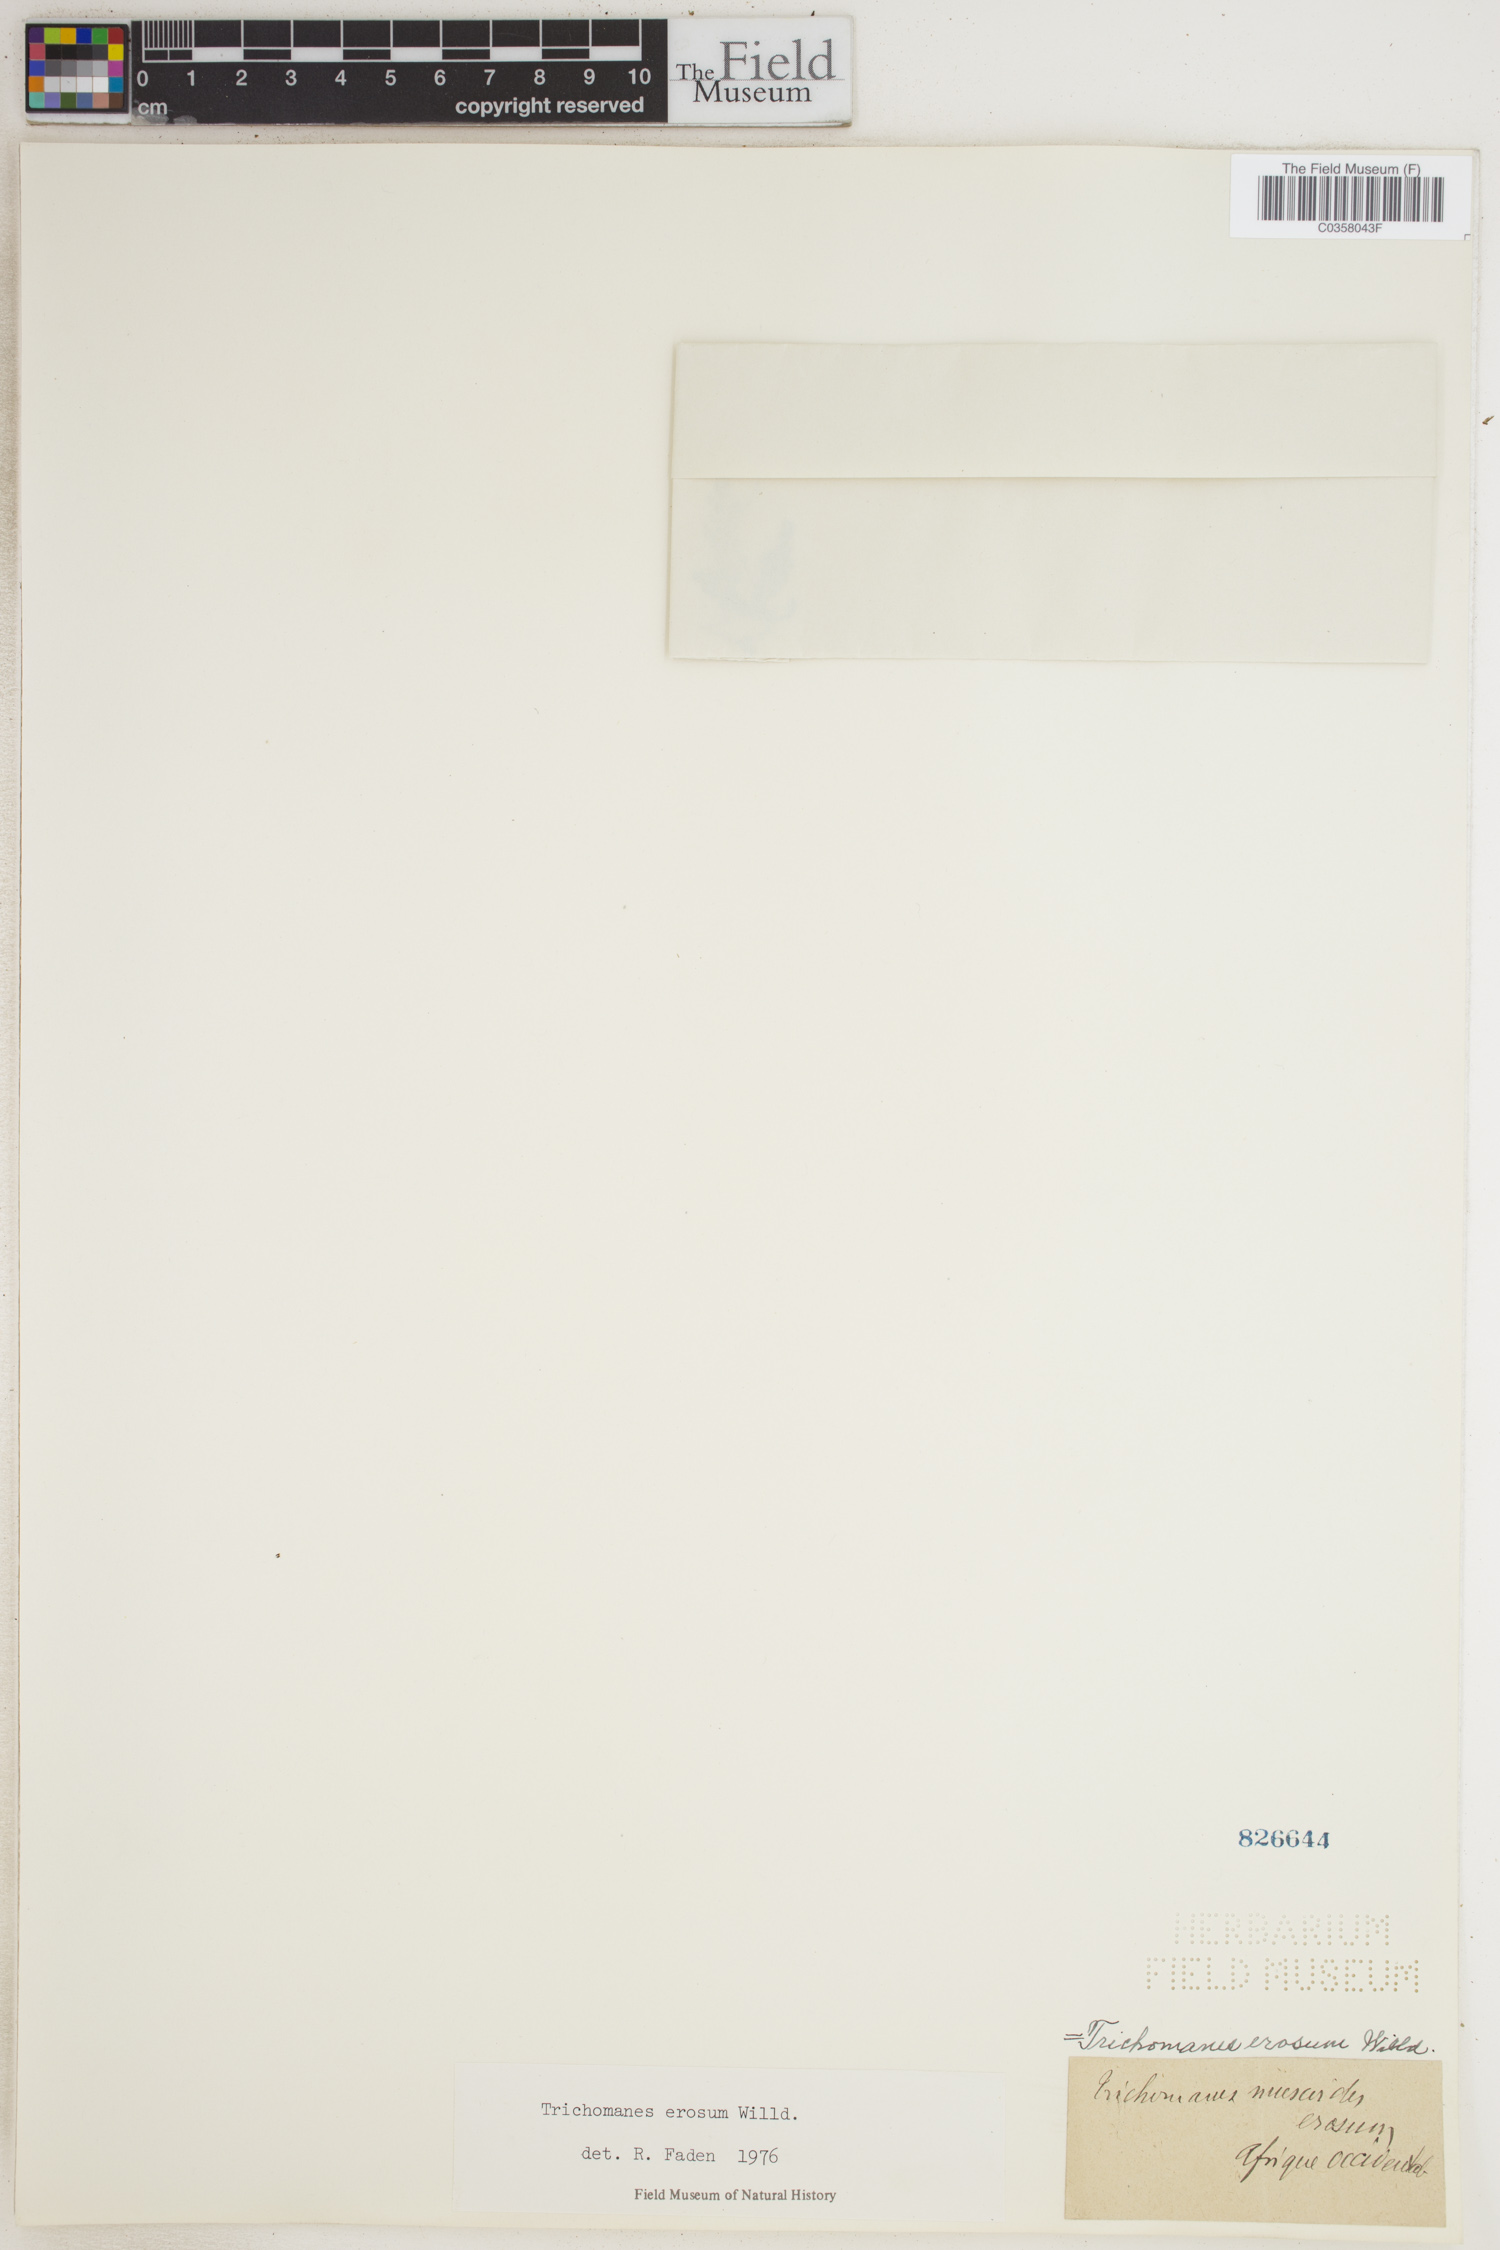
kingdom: Plantae
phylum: Tracheophyta
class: Polypodiopsida
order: Hymenophyllales
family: Hymenophyllaceae
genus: Didymoglossum
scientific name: Didymoglossum erosum
